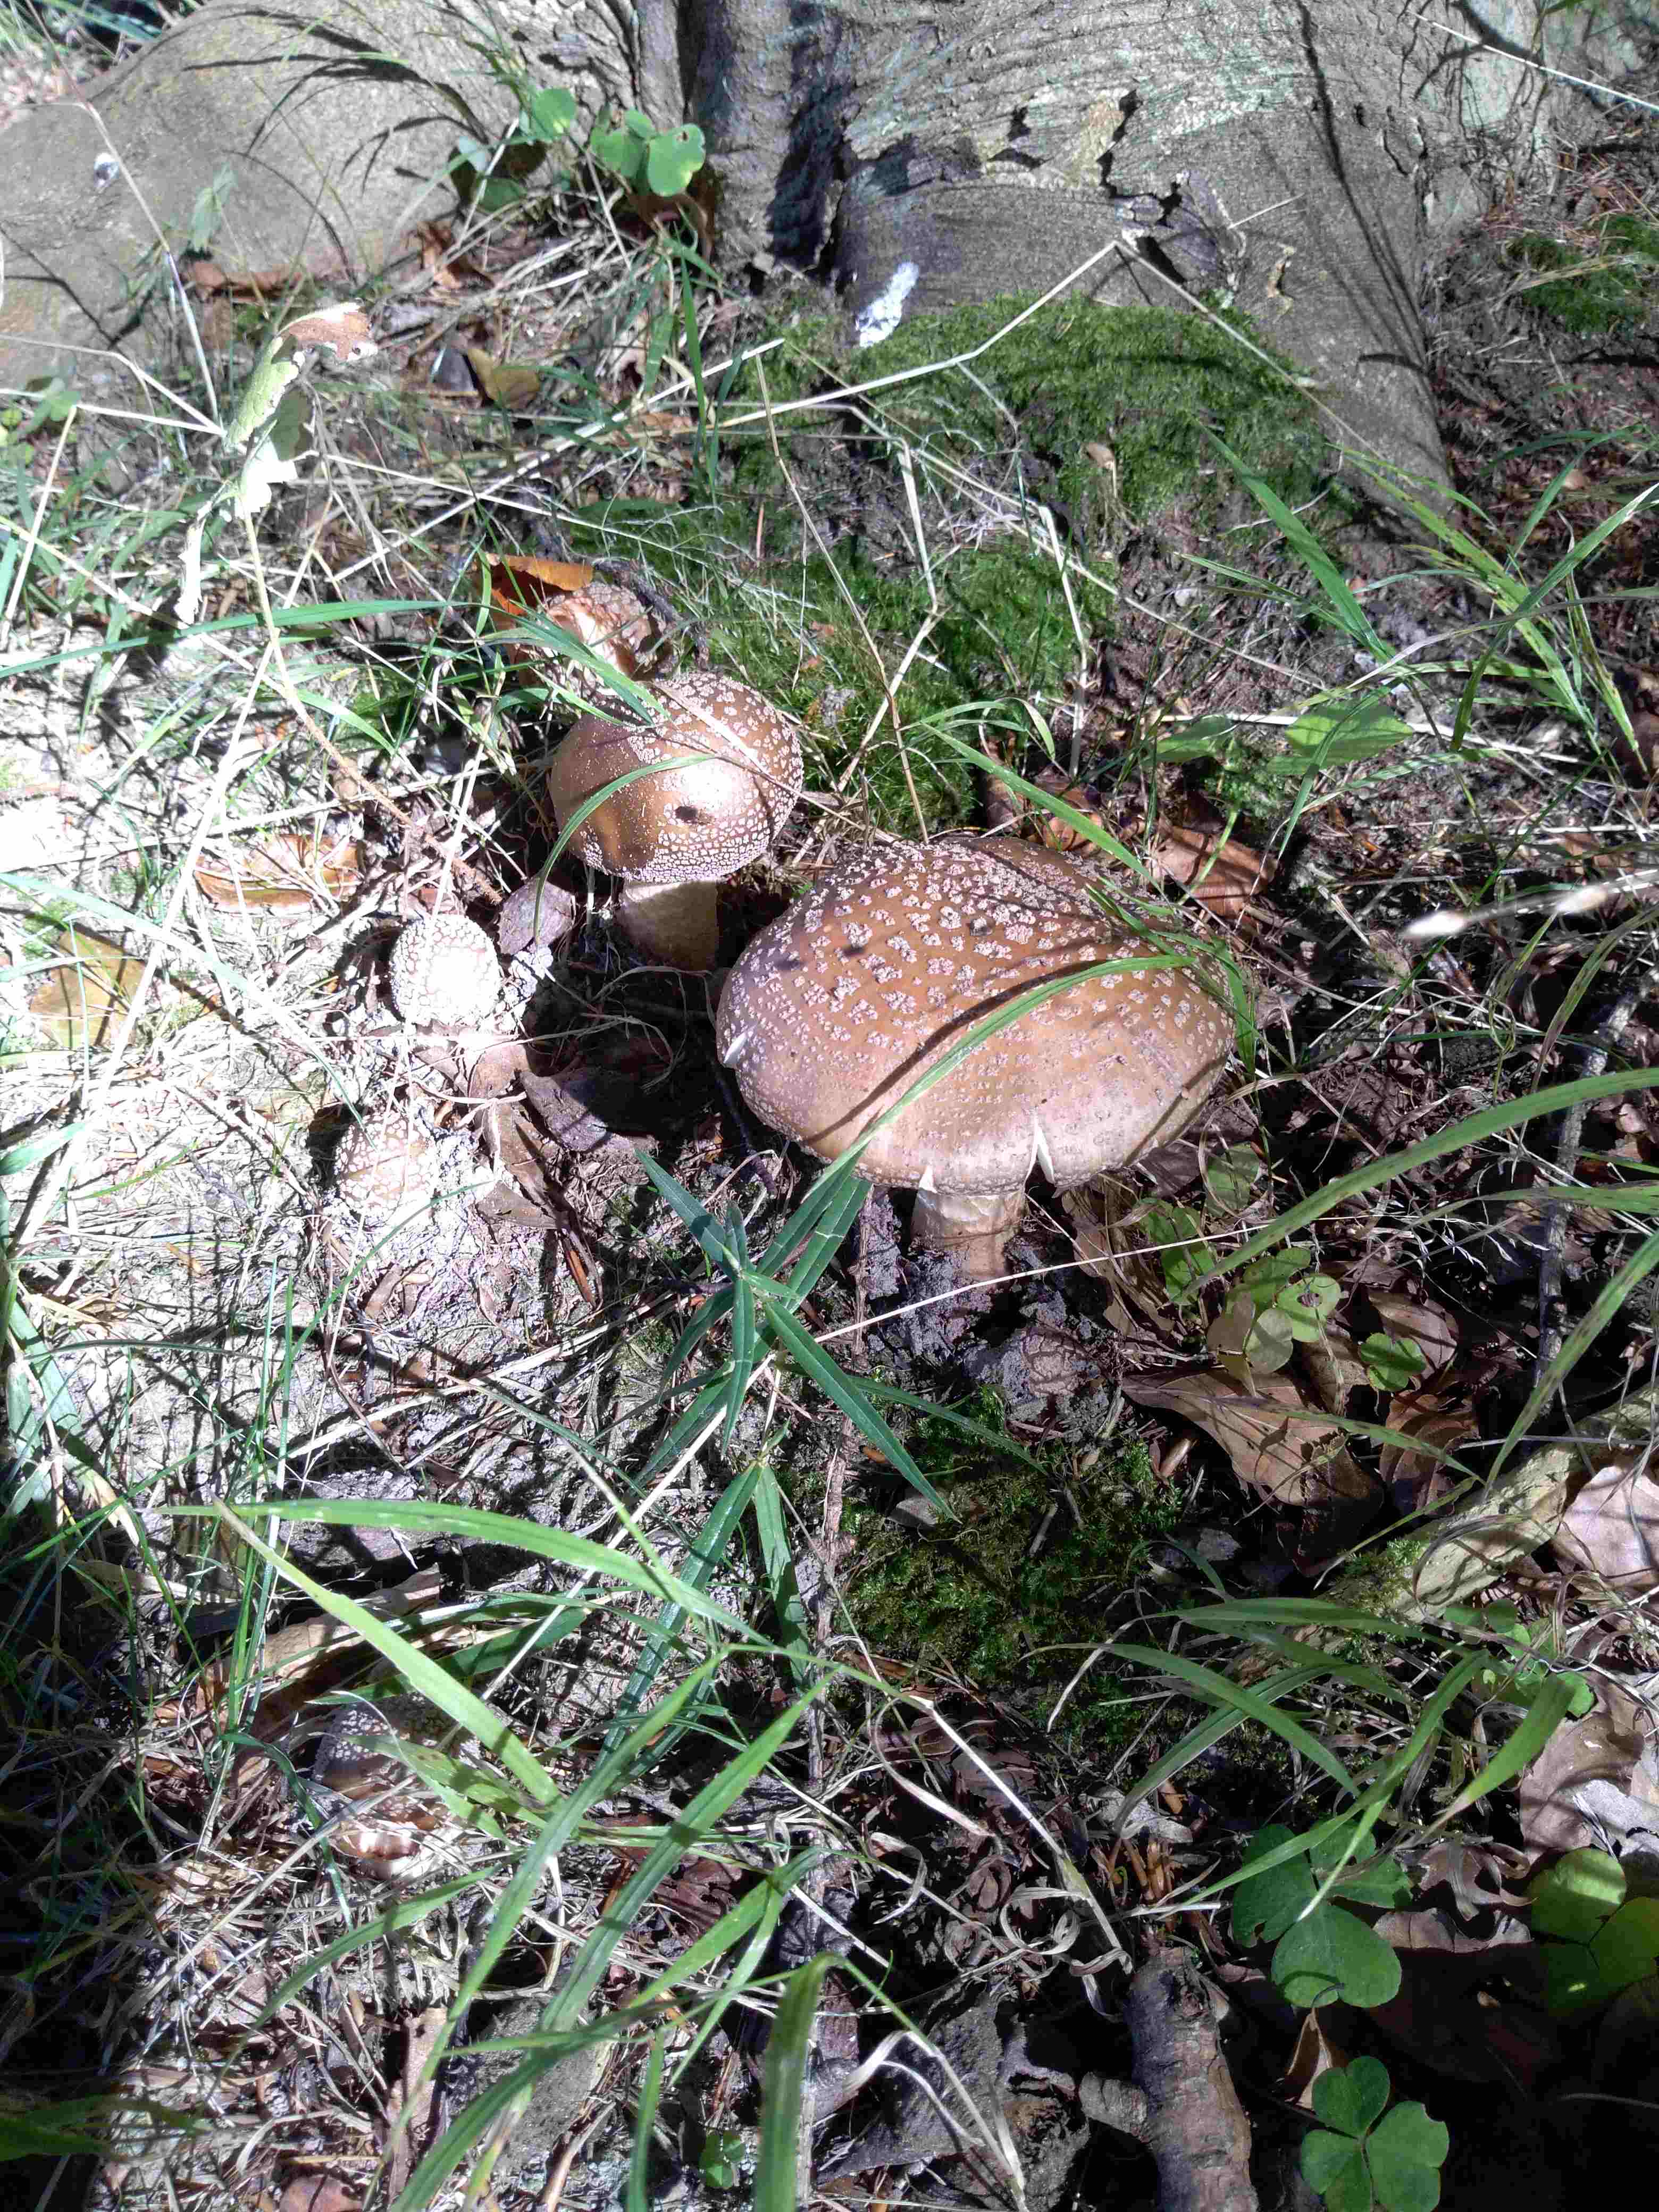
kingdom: Fungi
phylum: Basidiomycota
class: Agaricomycetes
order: Agaricales
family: Amanitaceae
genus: Amanita
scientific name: Amanita rubescens
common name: rødmende fluesvamp
